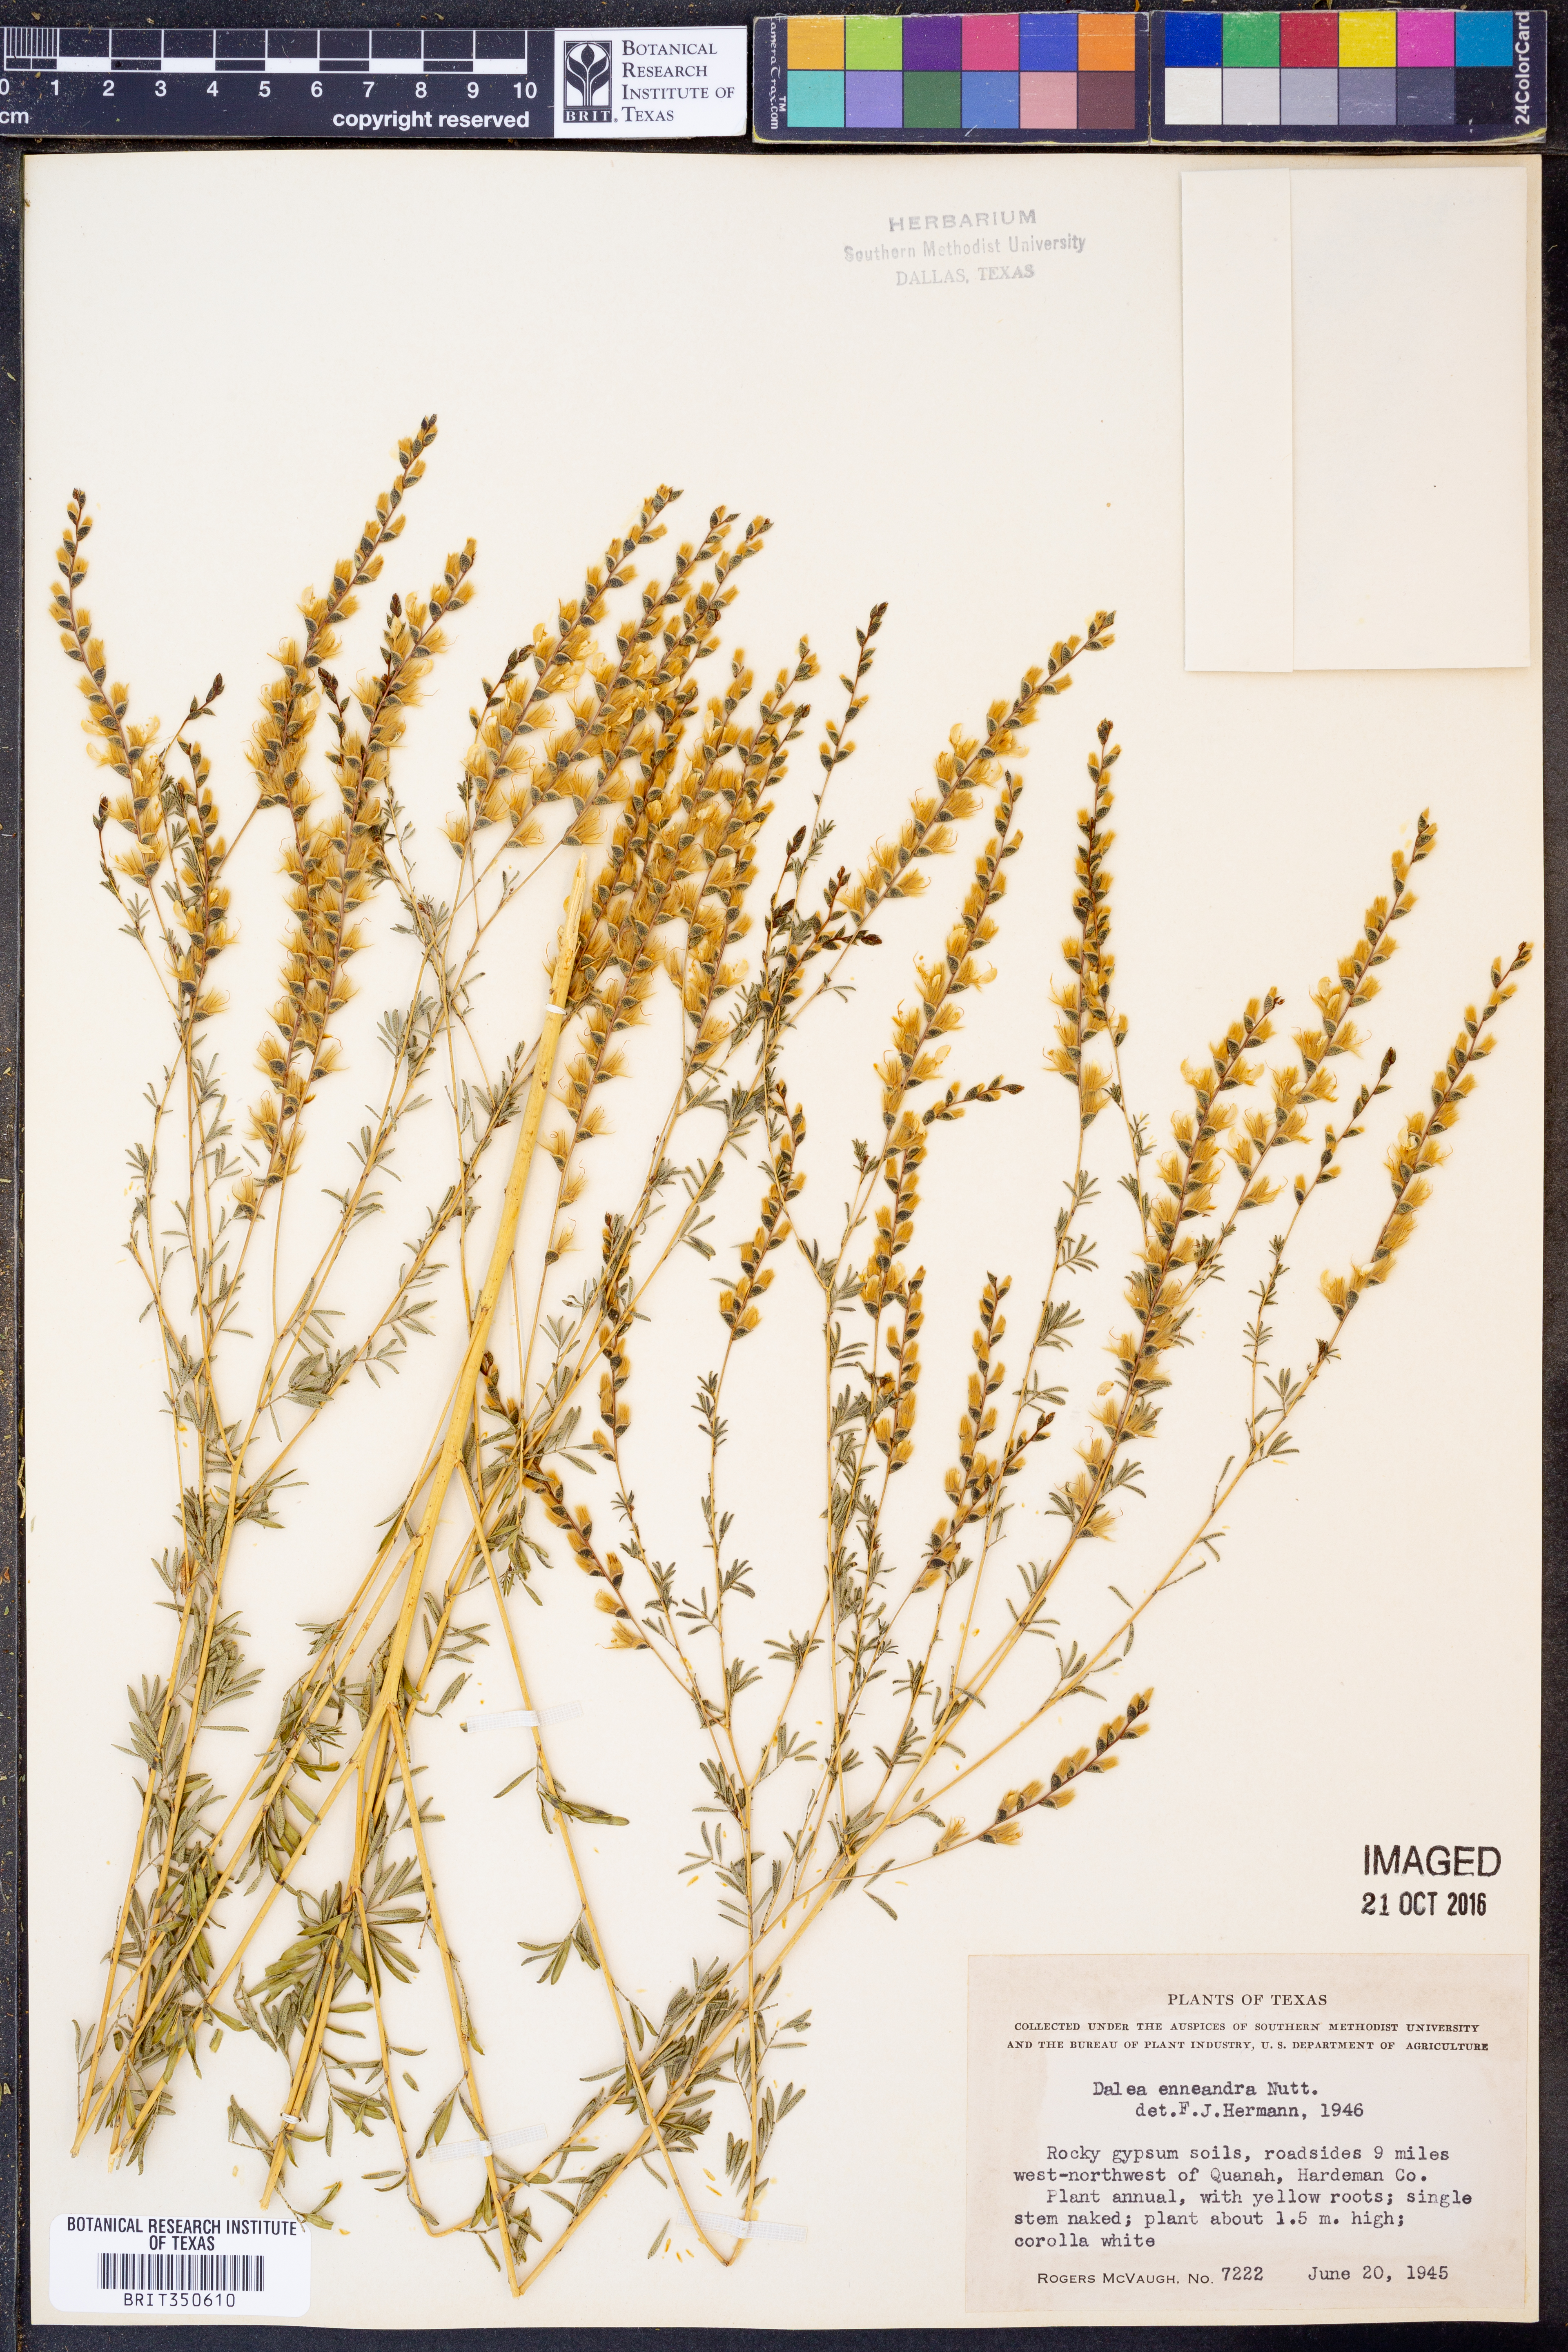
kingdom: Plantae
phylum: Tracheophyta
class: Magnoliopsida
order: Fabales
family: Fabaceae
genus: Dalea
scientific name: Dalea enneandra
